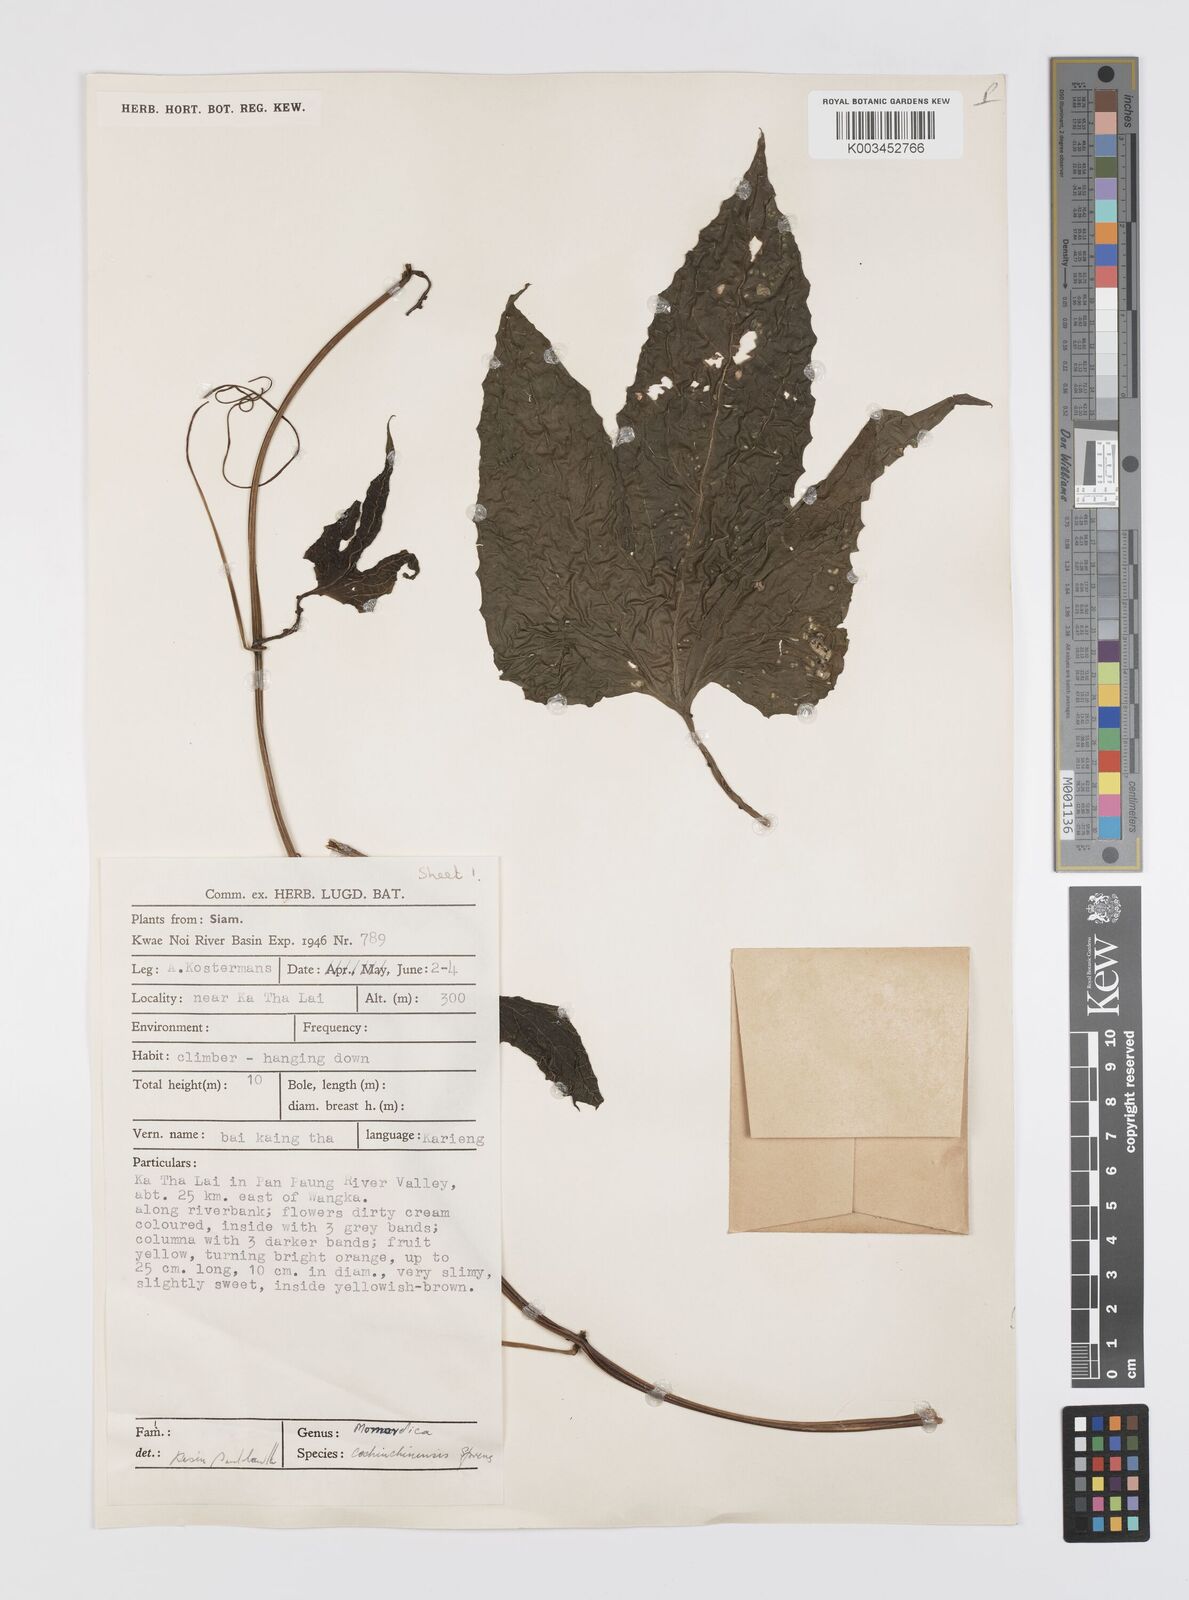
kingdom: Plantae
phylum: Tracheophyta
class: Magnoliopsida
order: Cucurbitales
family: Cucurbitaceae
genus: Momordica
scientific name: Momordica cochinchinensis
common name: Chinese bitter-cucumber
